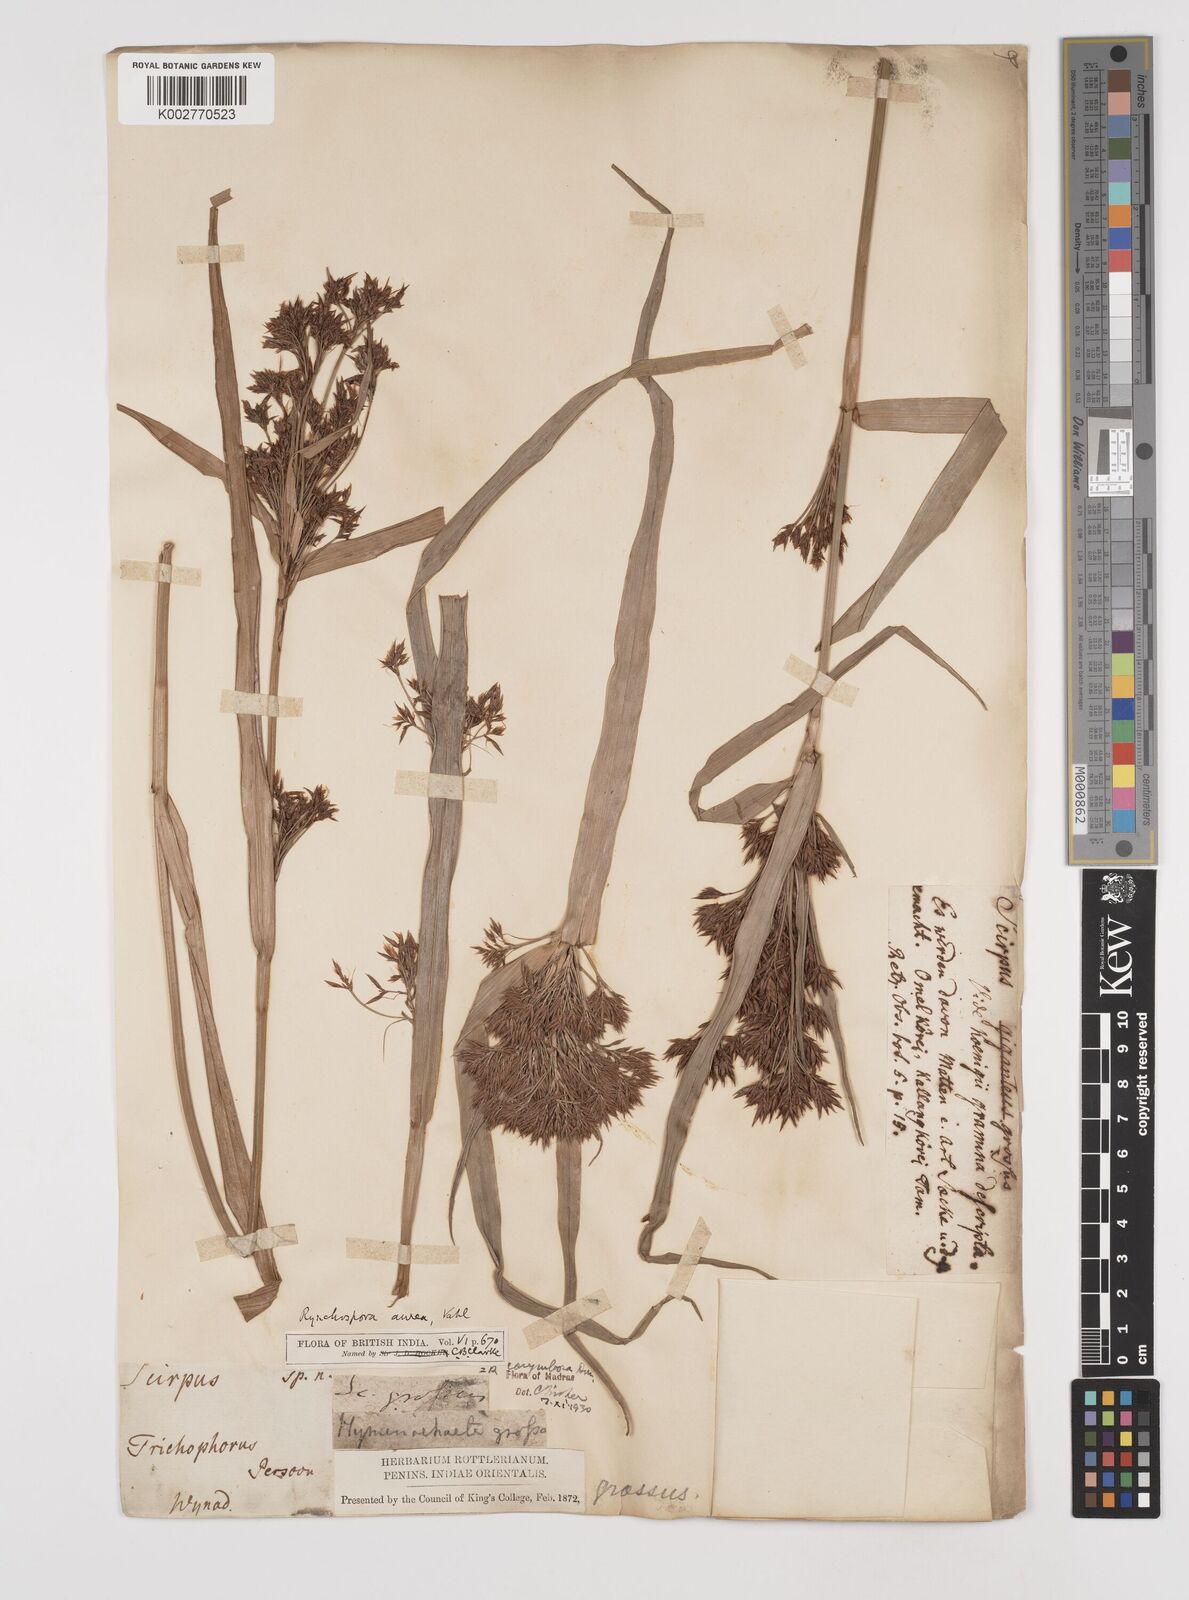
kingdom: Plantae
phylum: Tracheophyta
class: Liliopsida
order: Poales
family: Cyperaceae
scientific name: Cyperaceae
